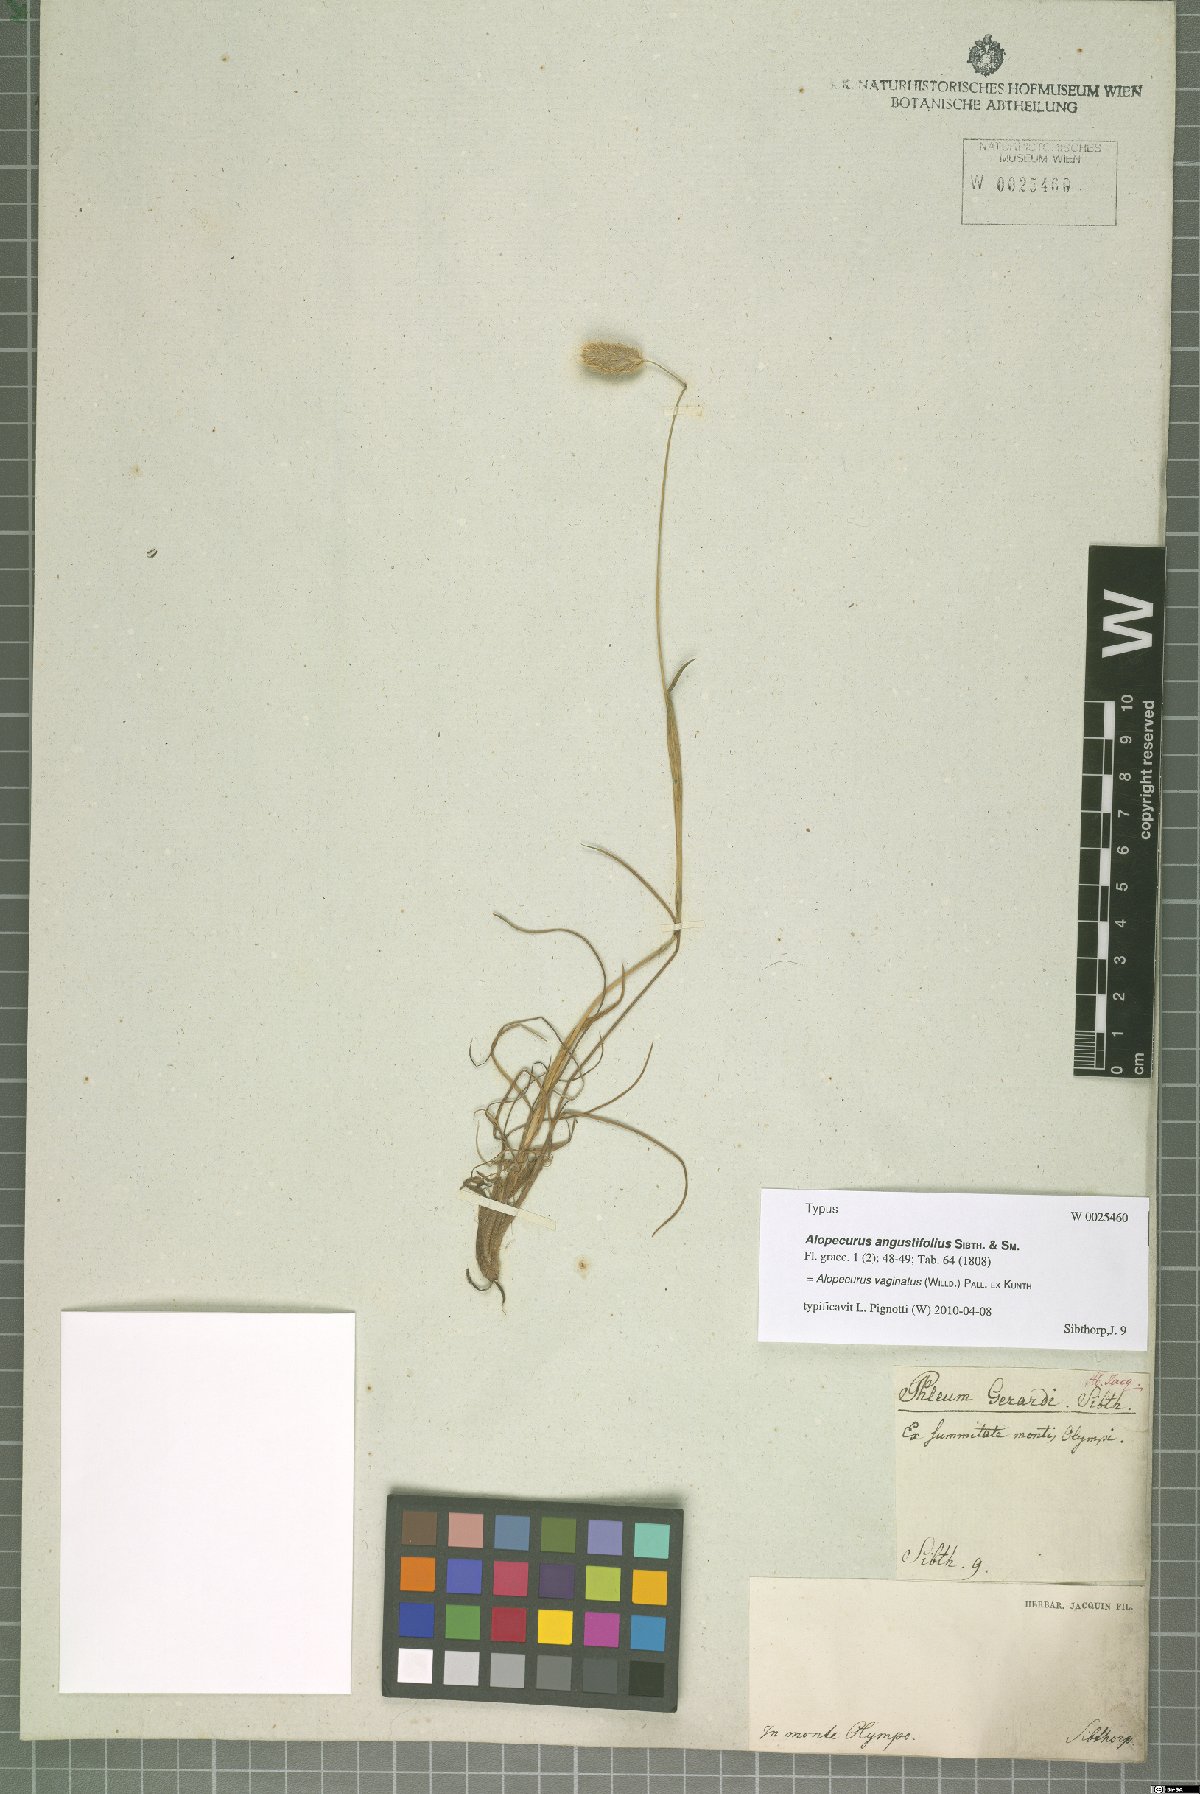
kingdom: Plantae
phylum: Tracheophyta
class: Liliopsida
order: Poales
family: Poaceae
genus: Alopecurus
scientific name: Alopecurus vaginatus
